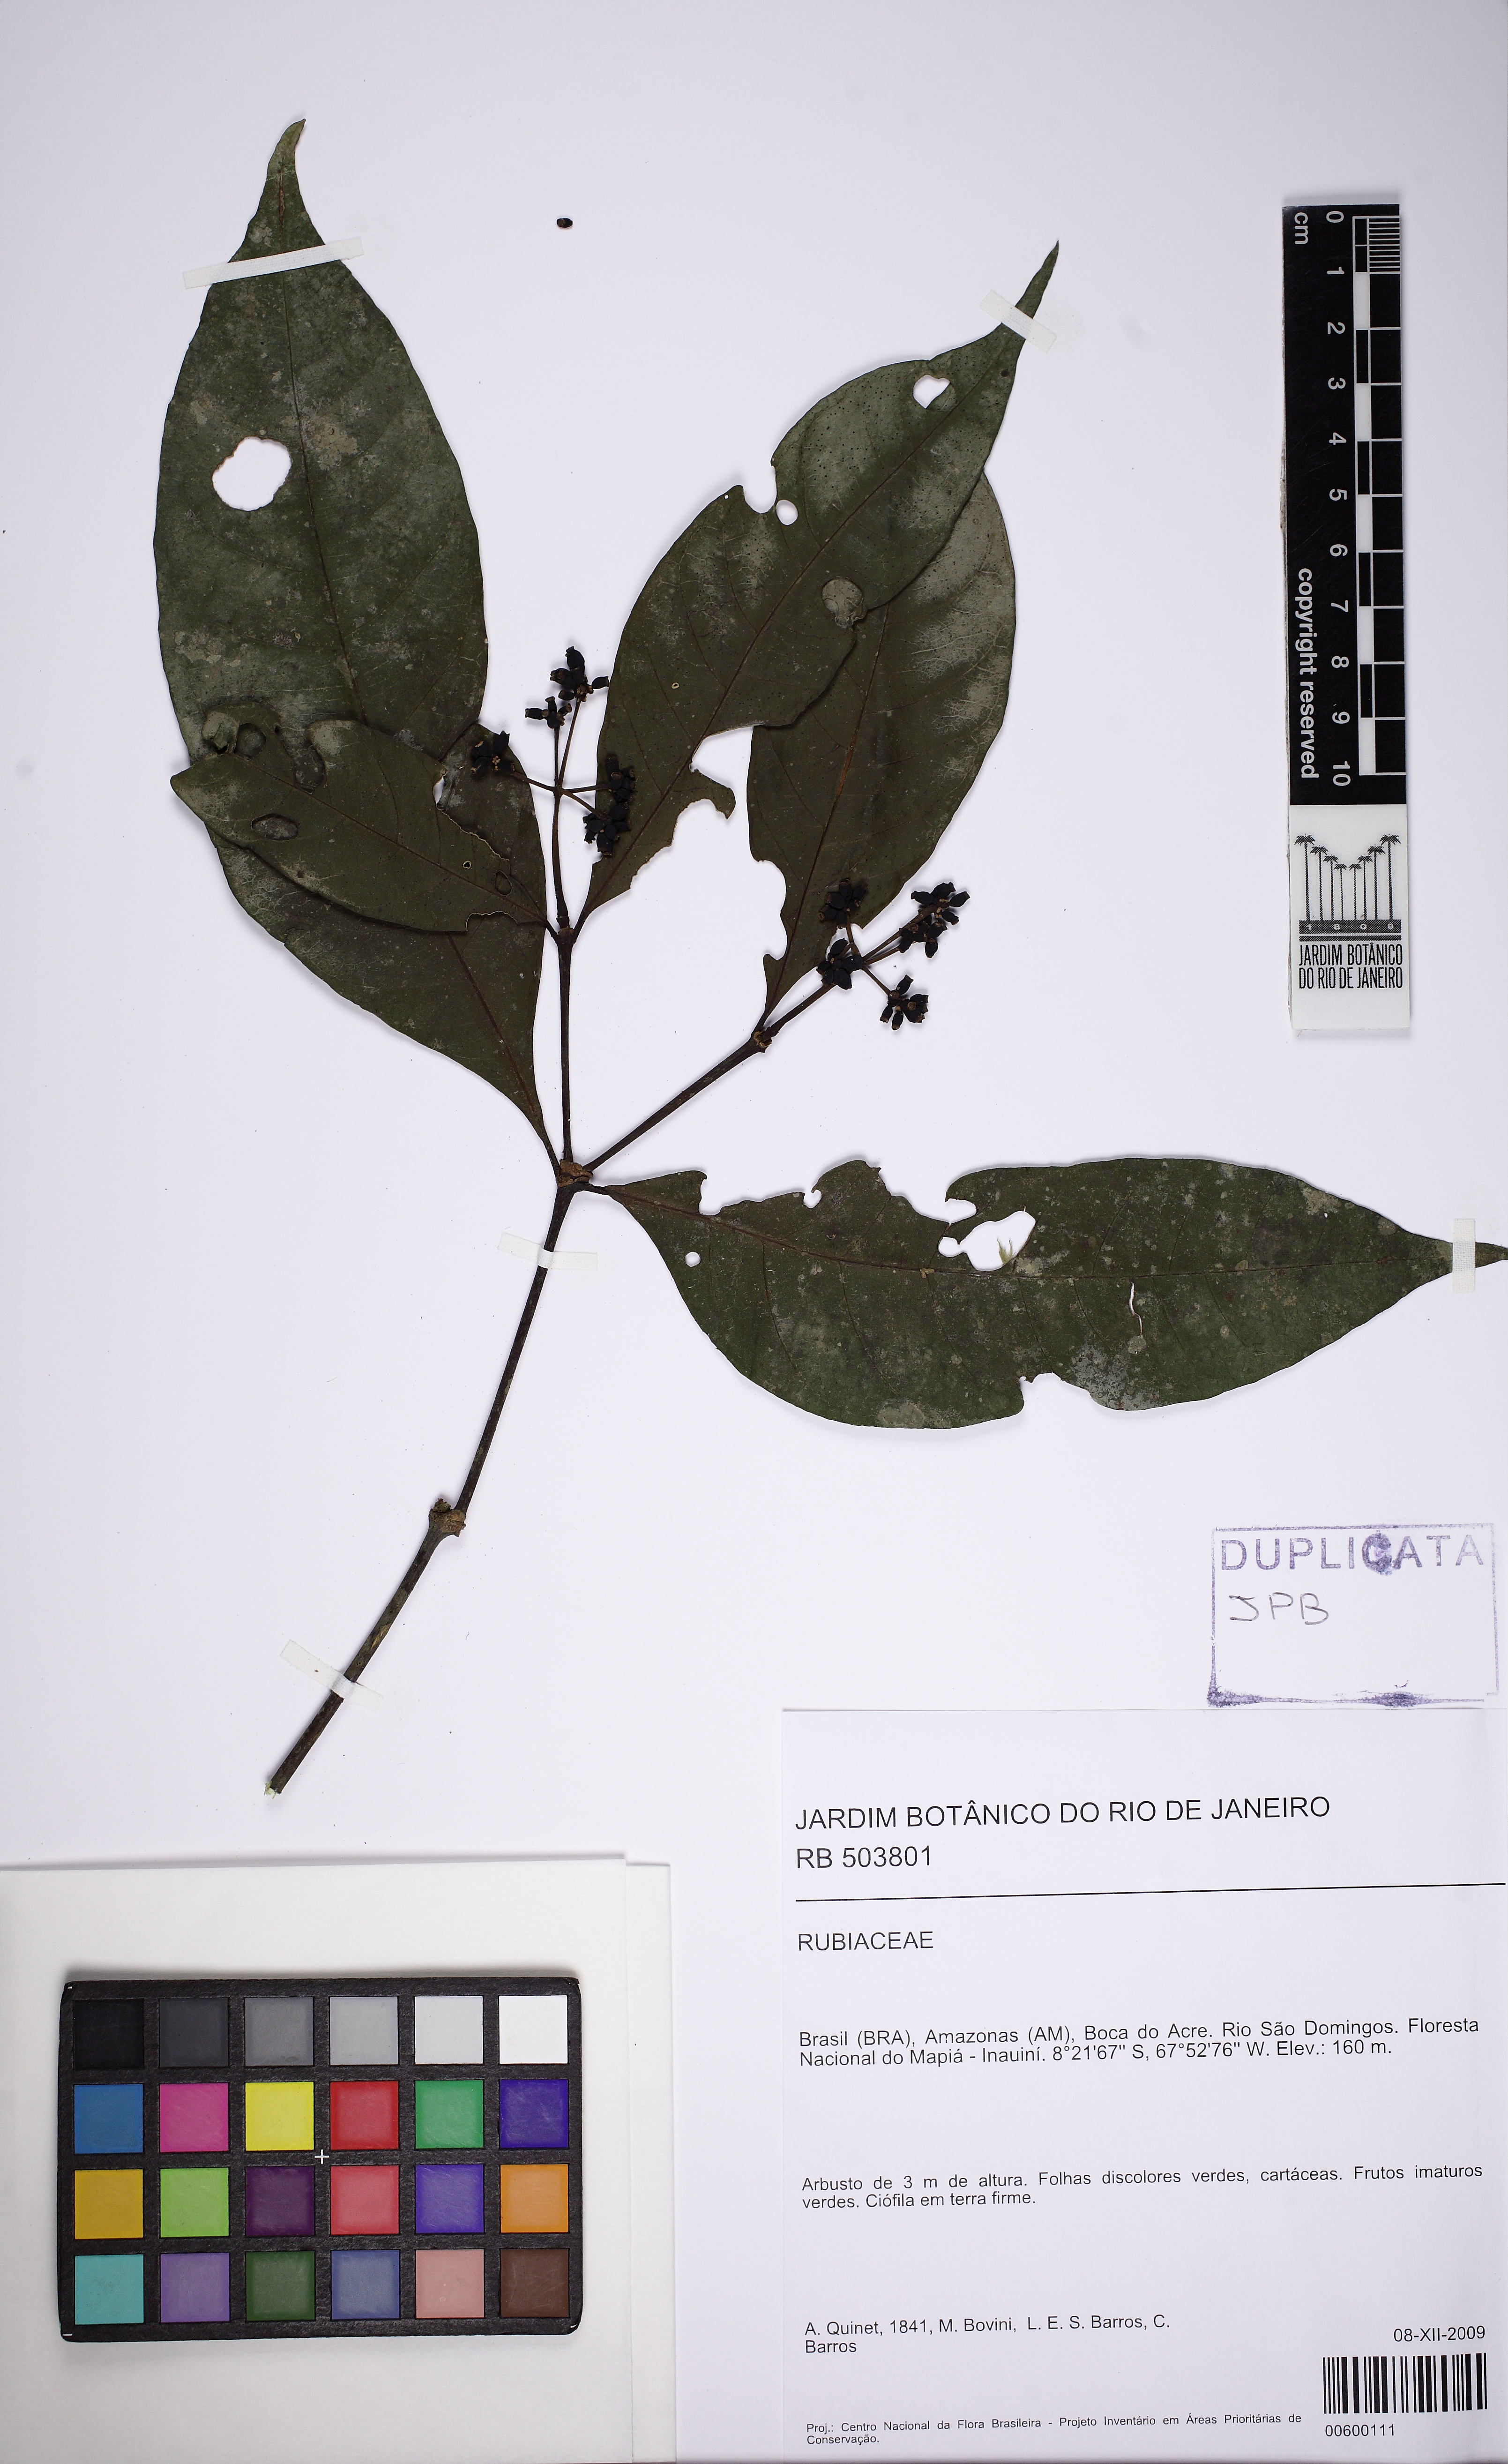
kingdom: Plantae
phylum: Tracheophyta
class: Magnoliopsida
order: Gentianales
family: Rubiaceae
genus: Appunia
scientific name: Appunia
